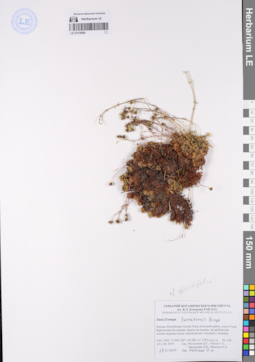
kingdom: Plantae
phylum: Tracheophyta
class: Magnoliopsida
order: Saxifragales
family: Saxifragaceae
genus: Saxifraga
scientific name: Saxifraga terektensis
